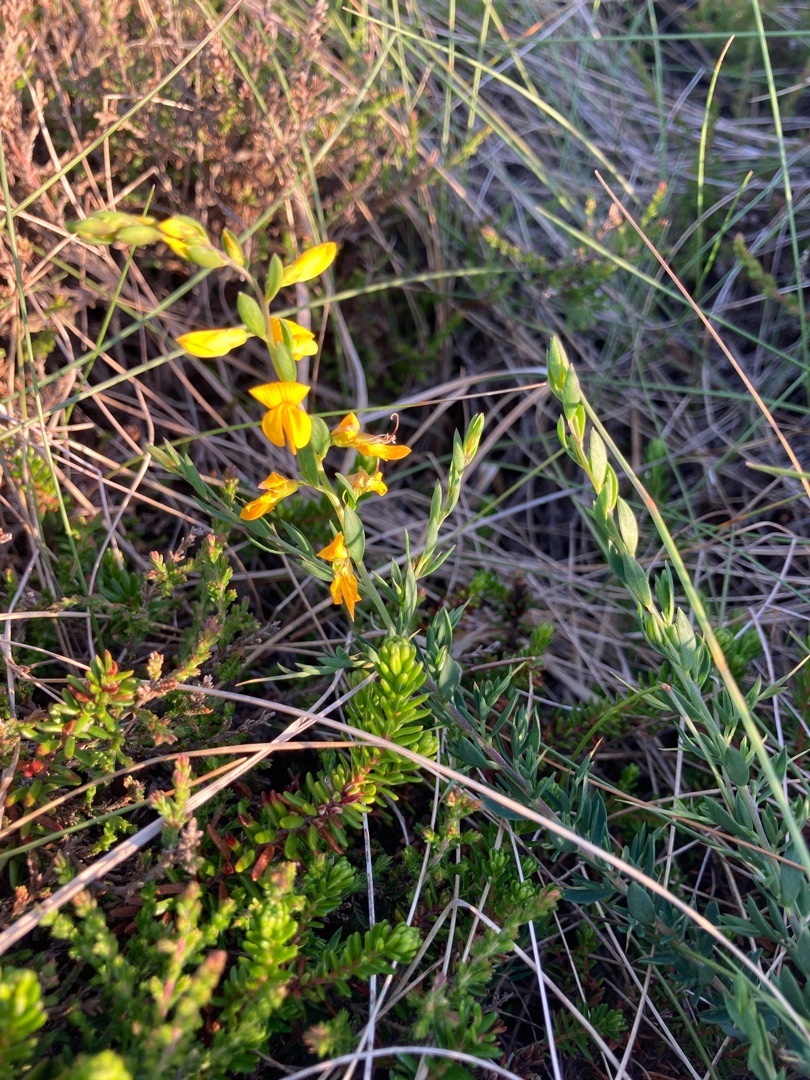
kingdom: Plantae
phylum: Tracheophyta
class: Magnoliopsida
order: Fabales
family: Fabaceae
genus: Genista
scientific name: Genista anglica
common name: Engelsk visse
